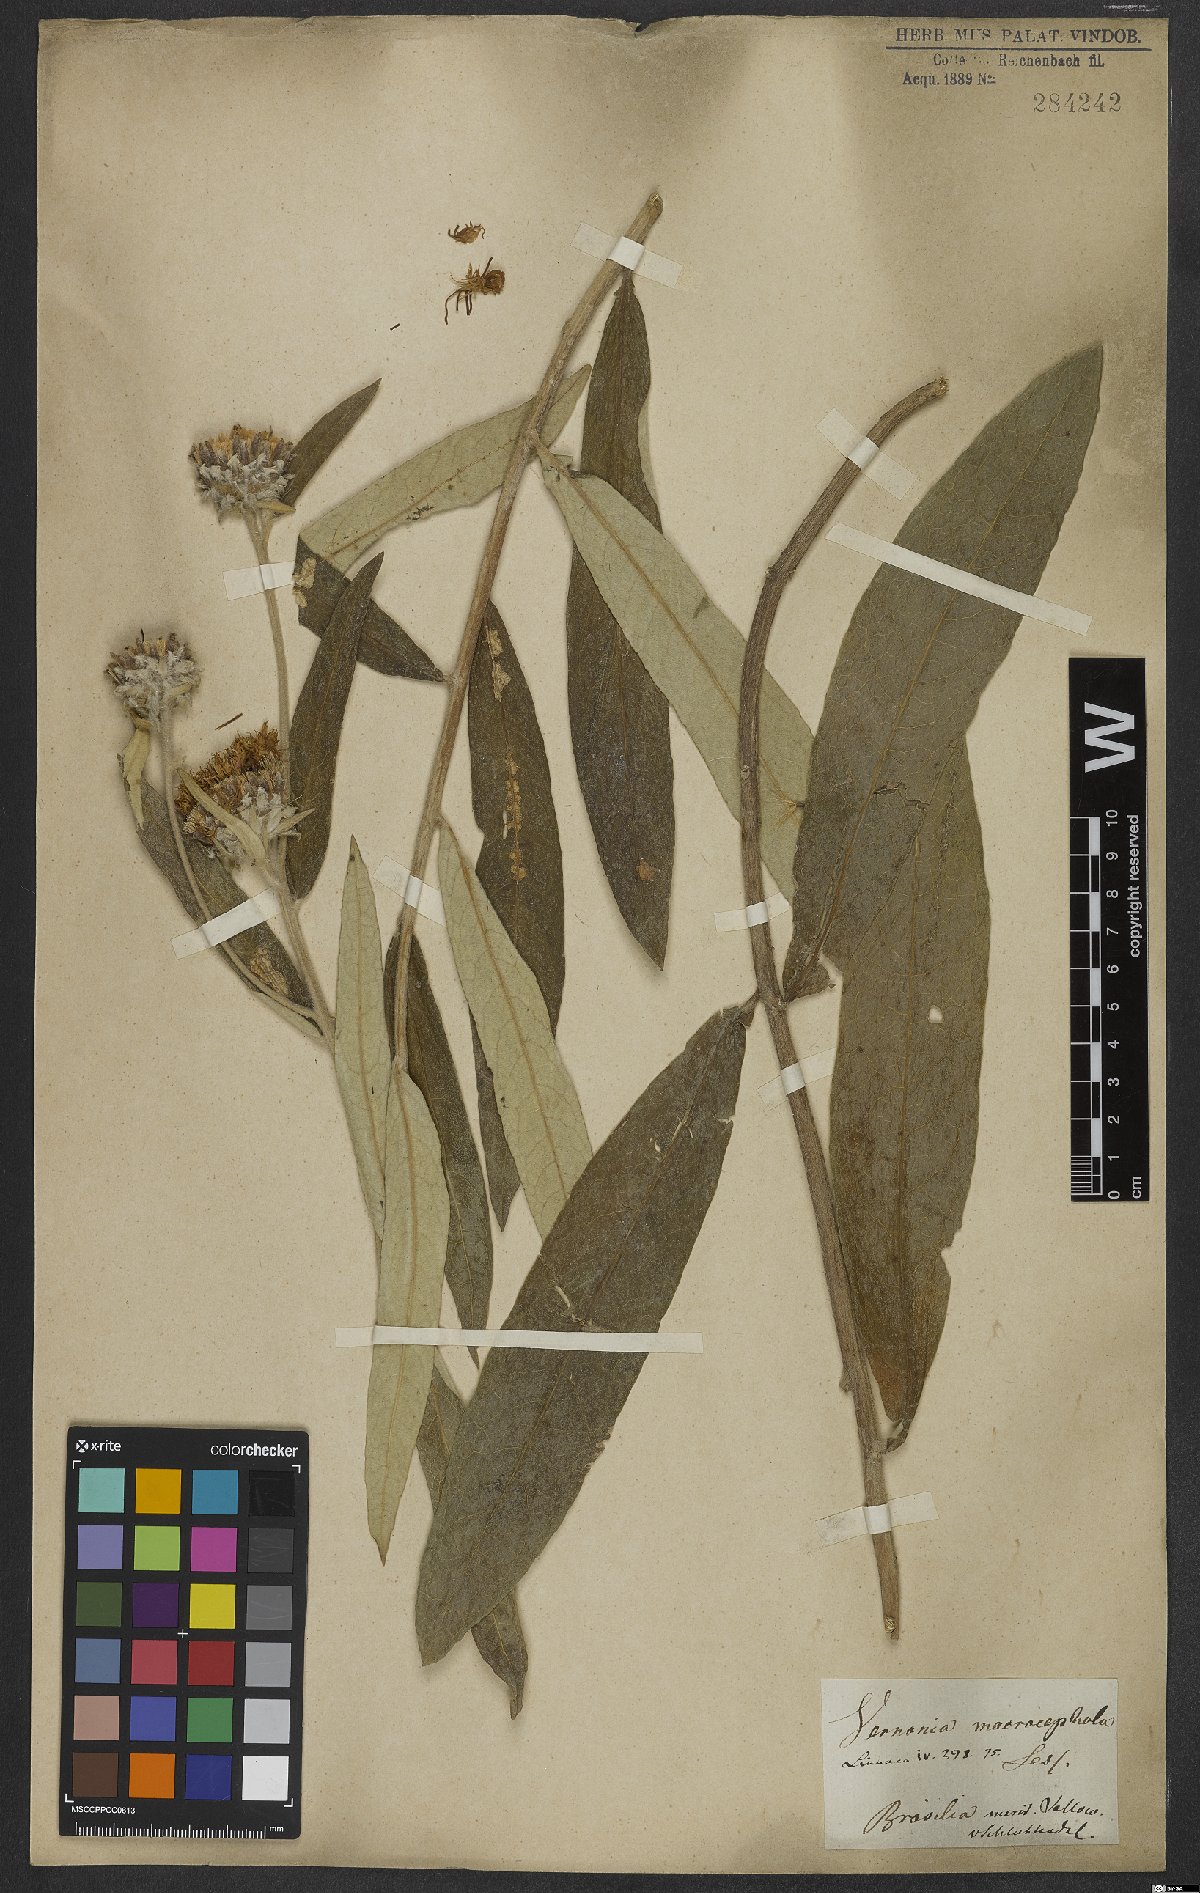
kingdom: Plantae
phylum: Tracheophyta
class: Magnoliopsida
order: Asterales
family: Asteraceae
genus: Lessingianthus
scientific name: Lessingianthus macrocephalus
